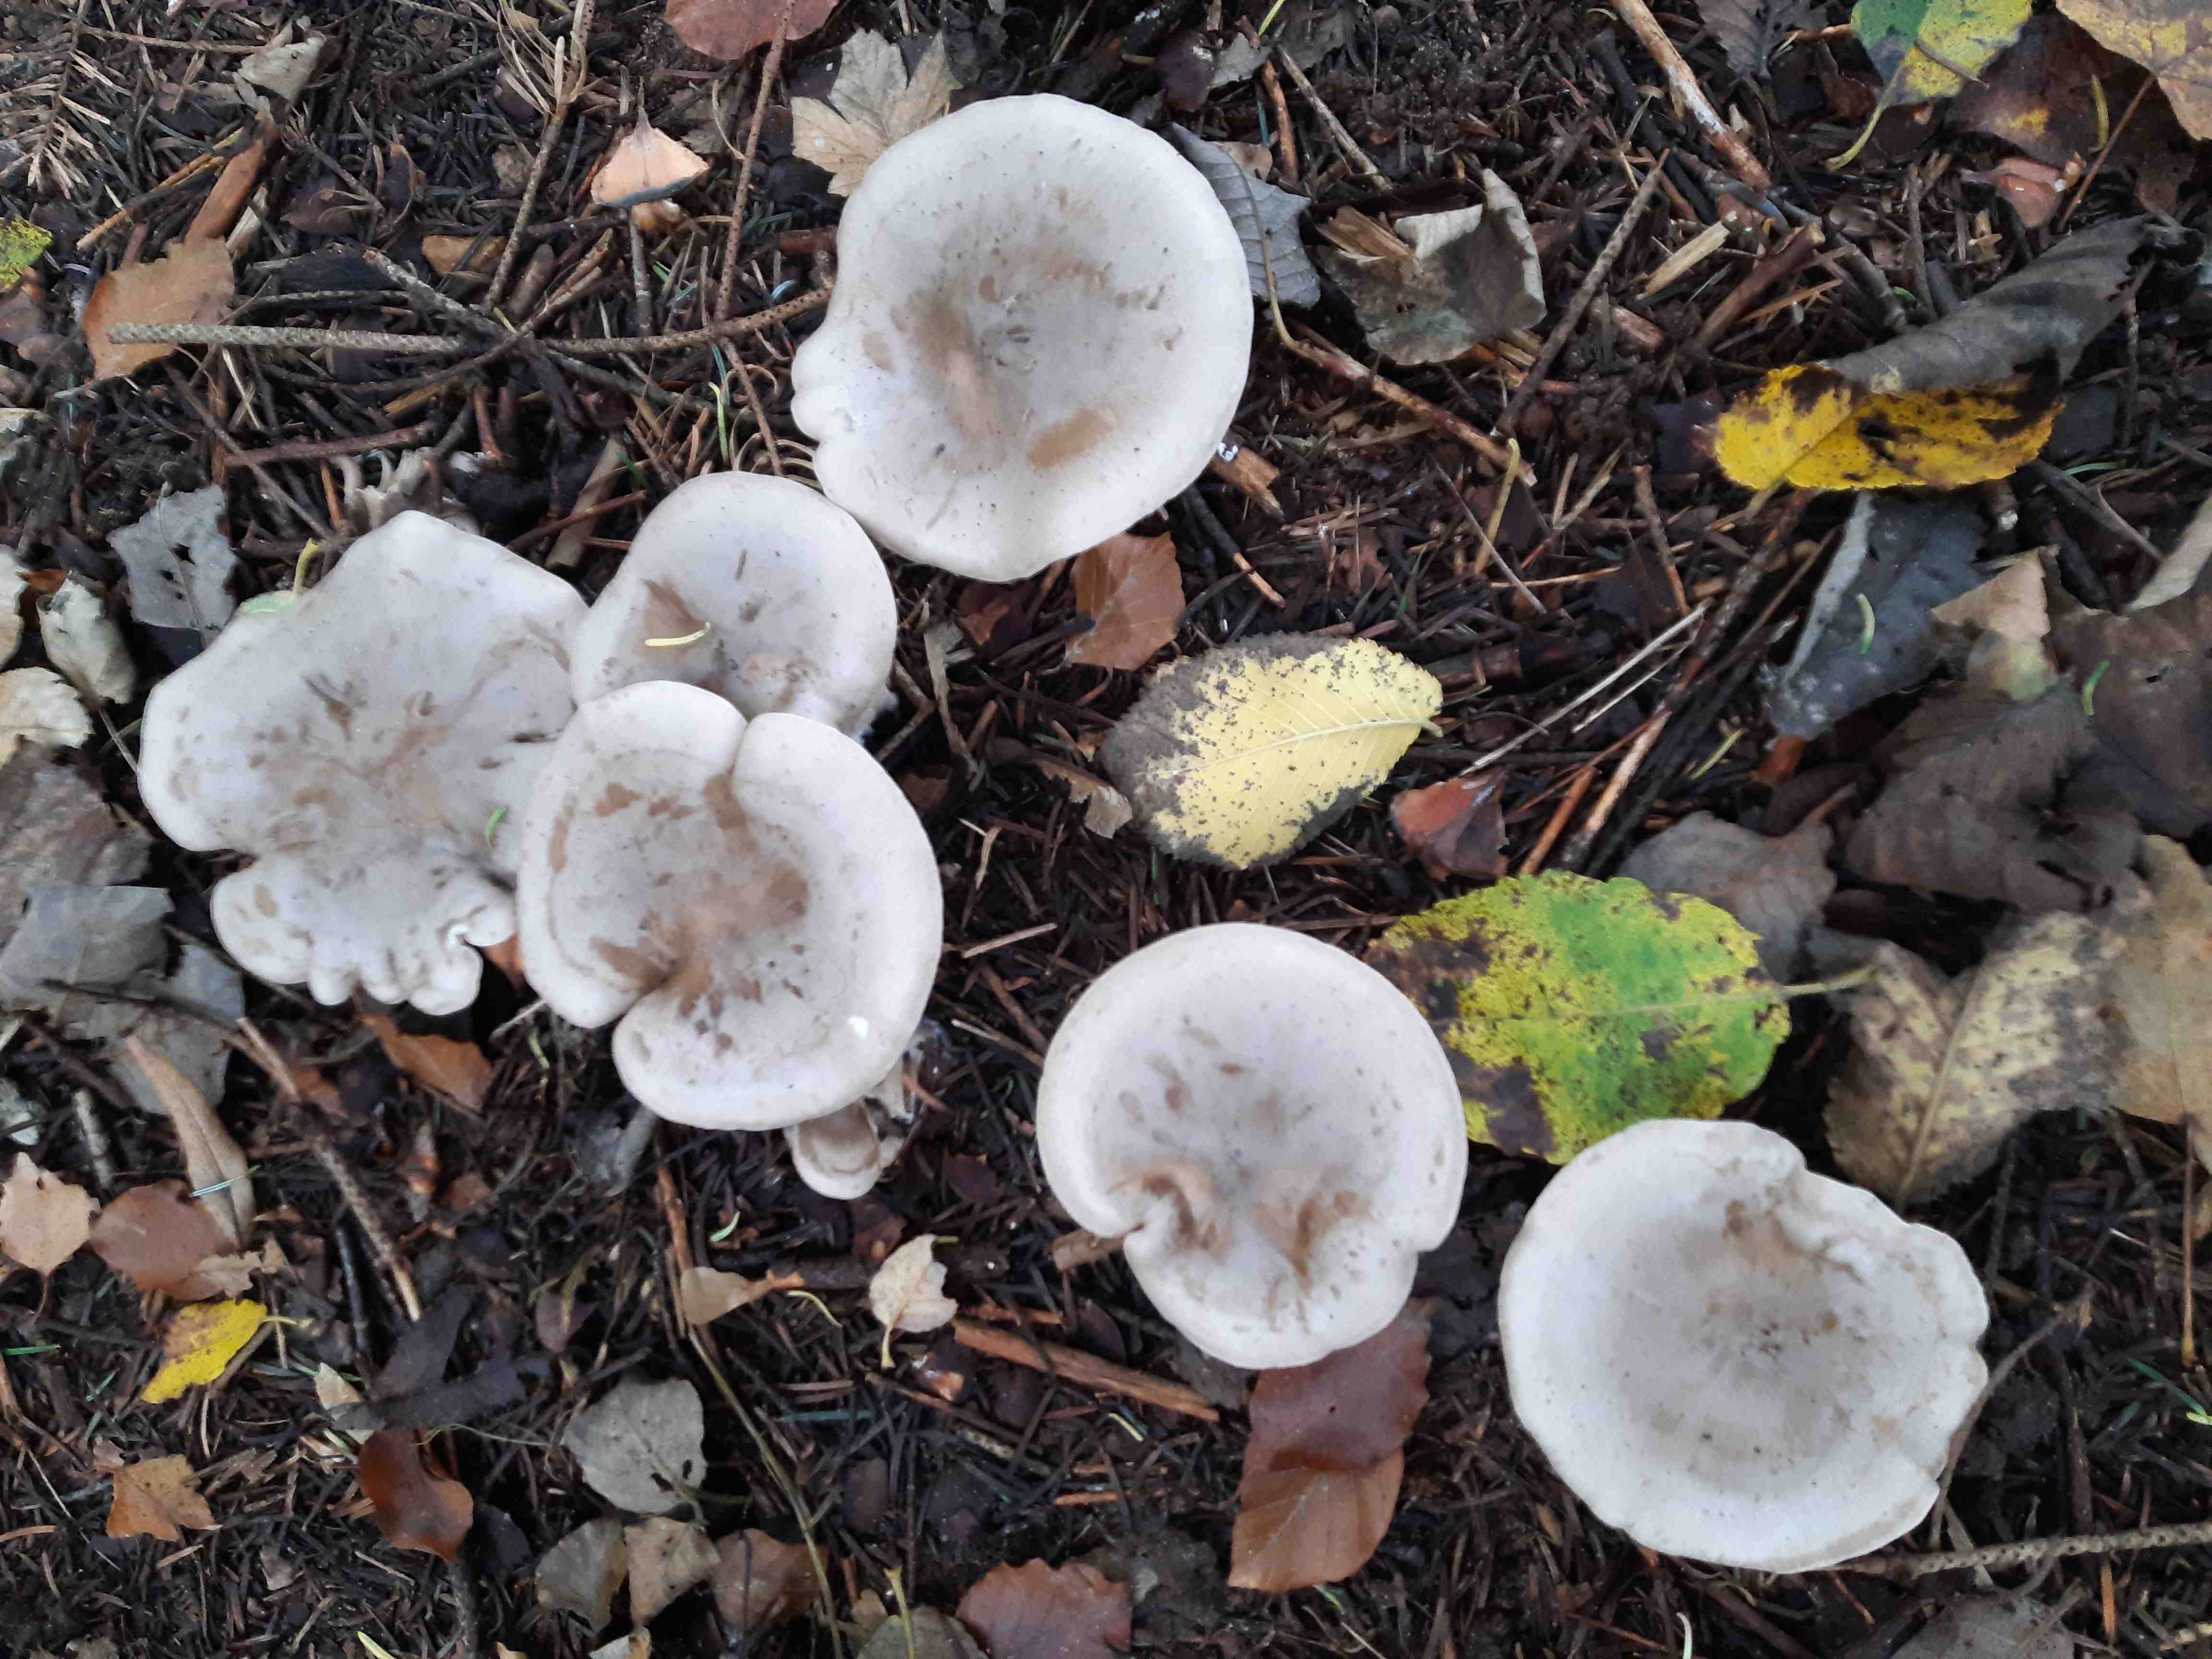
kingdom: Fungi
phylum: Basidiomycota
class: Agaricomycetes
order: Agaricales
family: Tricholomataceae
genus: Clitocybe
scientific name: Clitocybe nebularis
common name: tåge-tragthat
